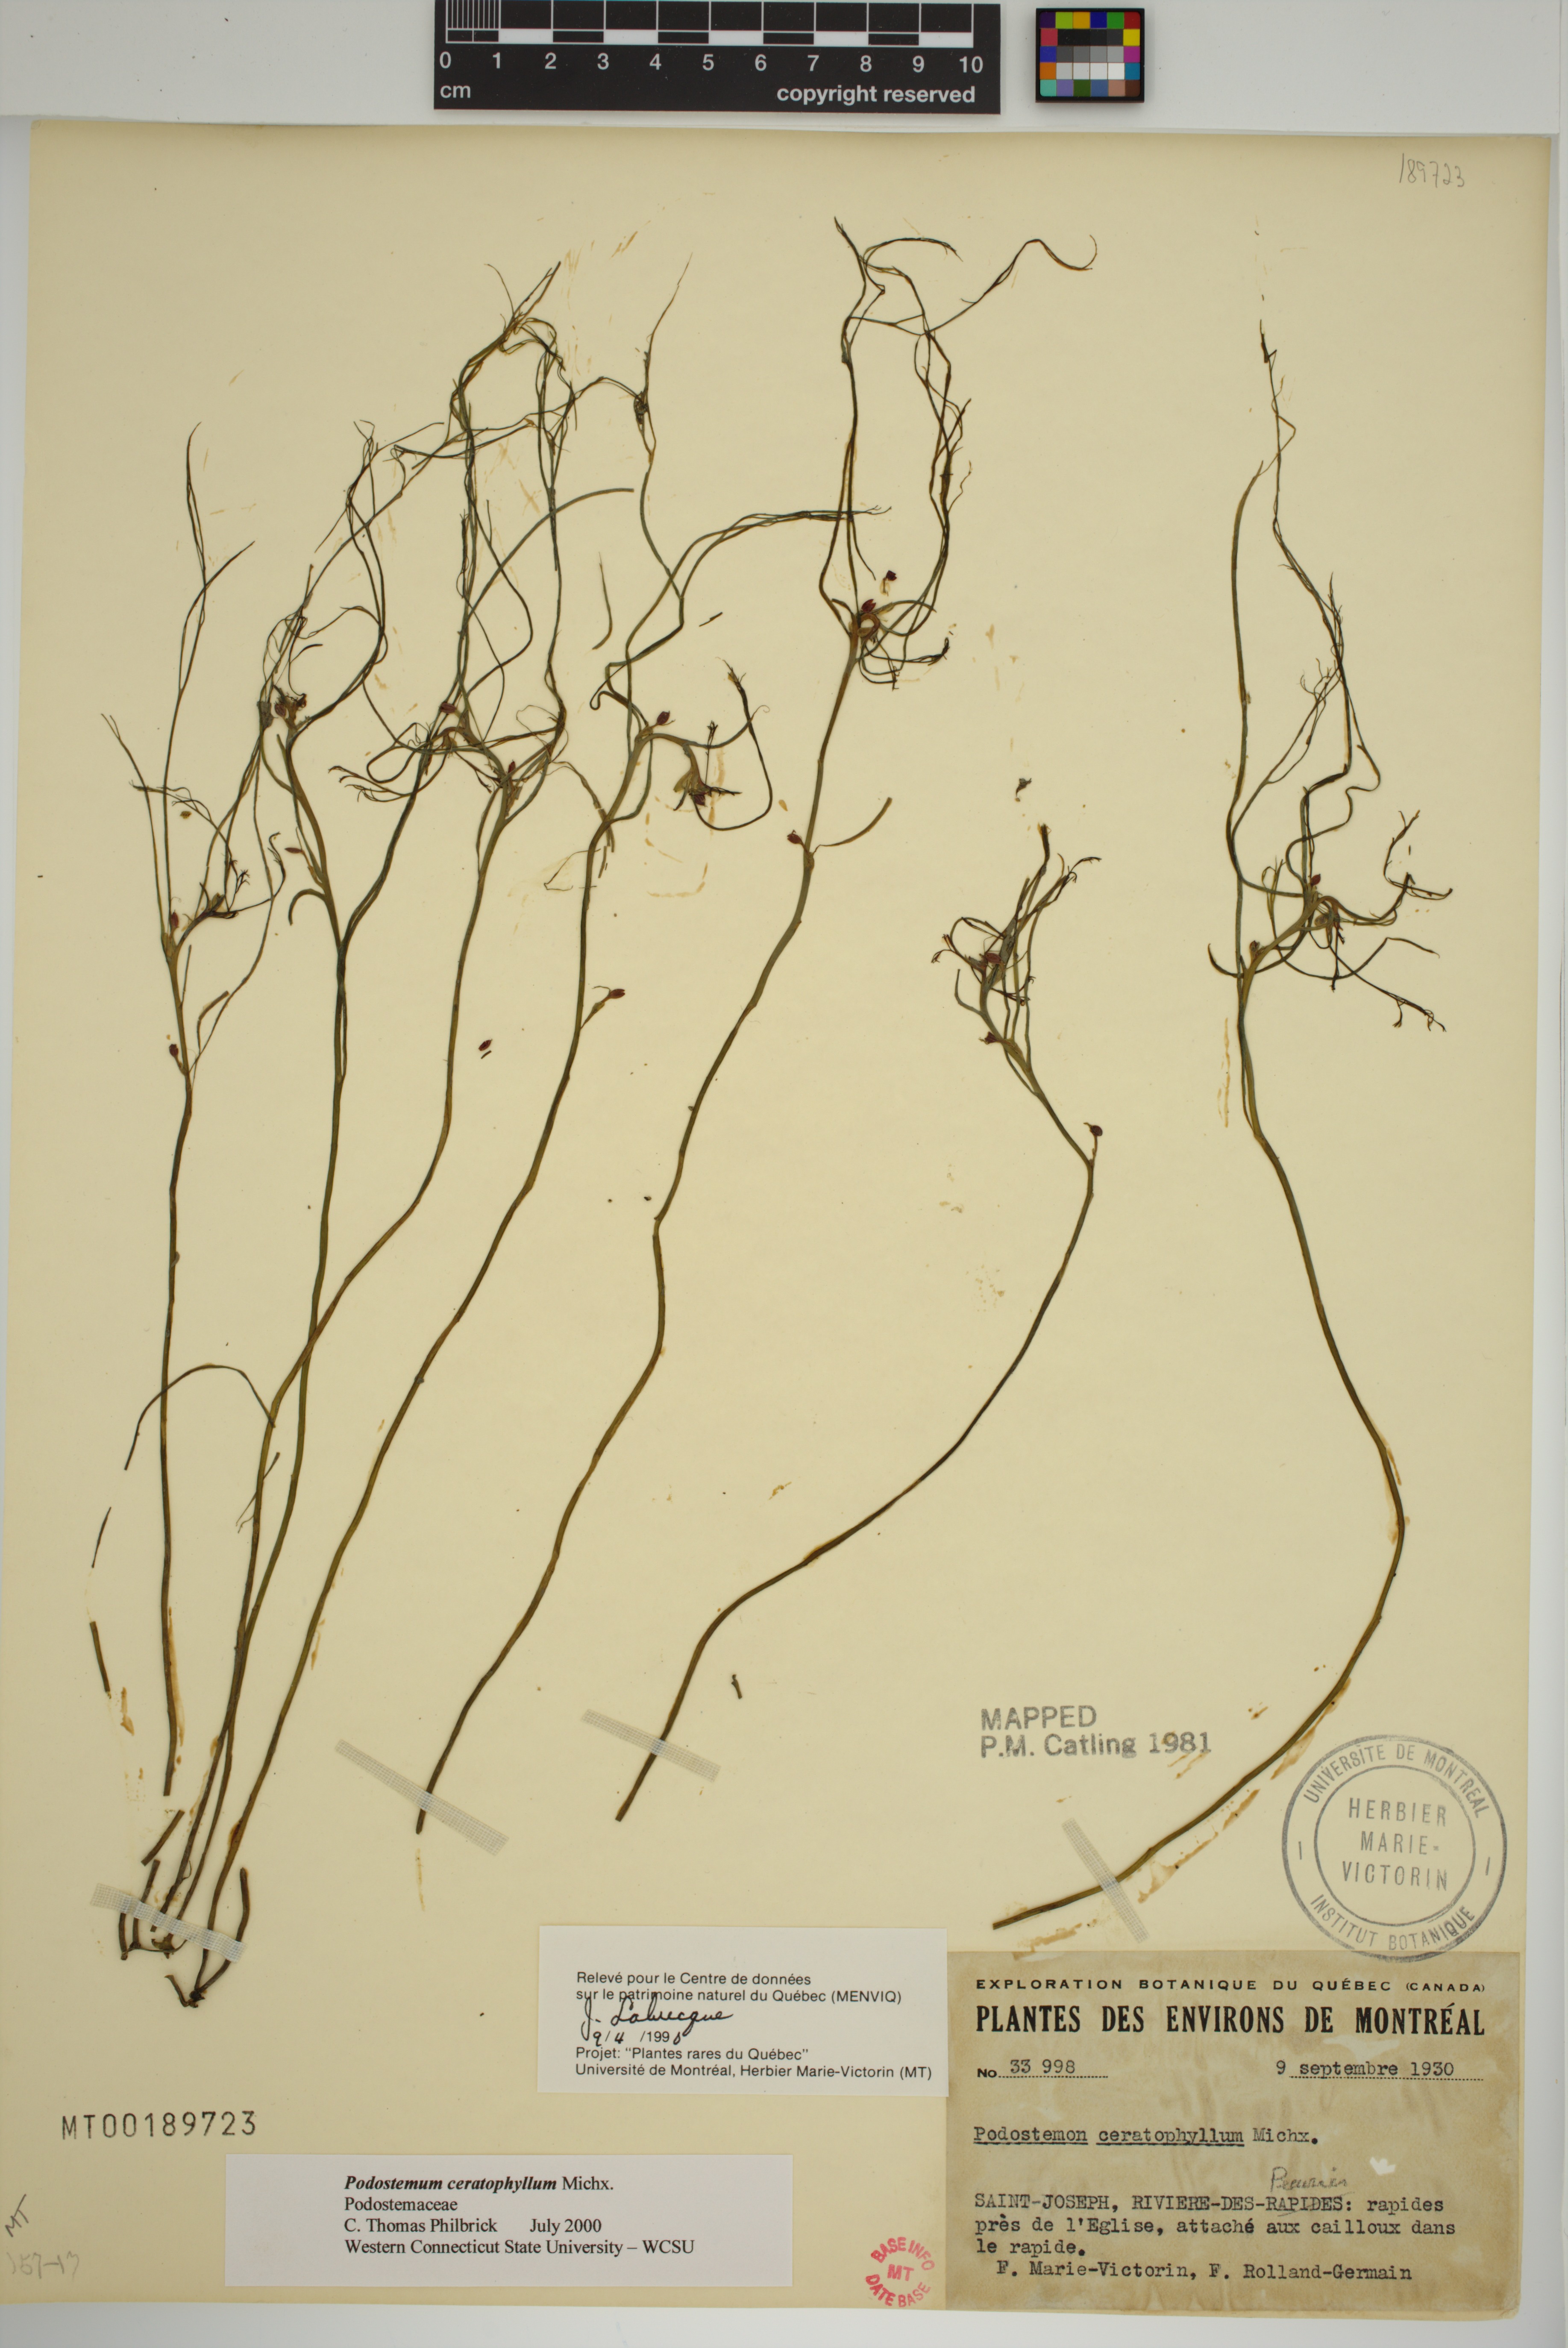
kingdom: Plantae
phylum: Tracheophyta
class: Magnoliopsida
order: Malpighiales
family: Podostemaceae
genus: Podostemum
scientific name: Podostemum ceratophyllum
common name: Horn-leaved riverweed
